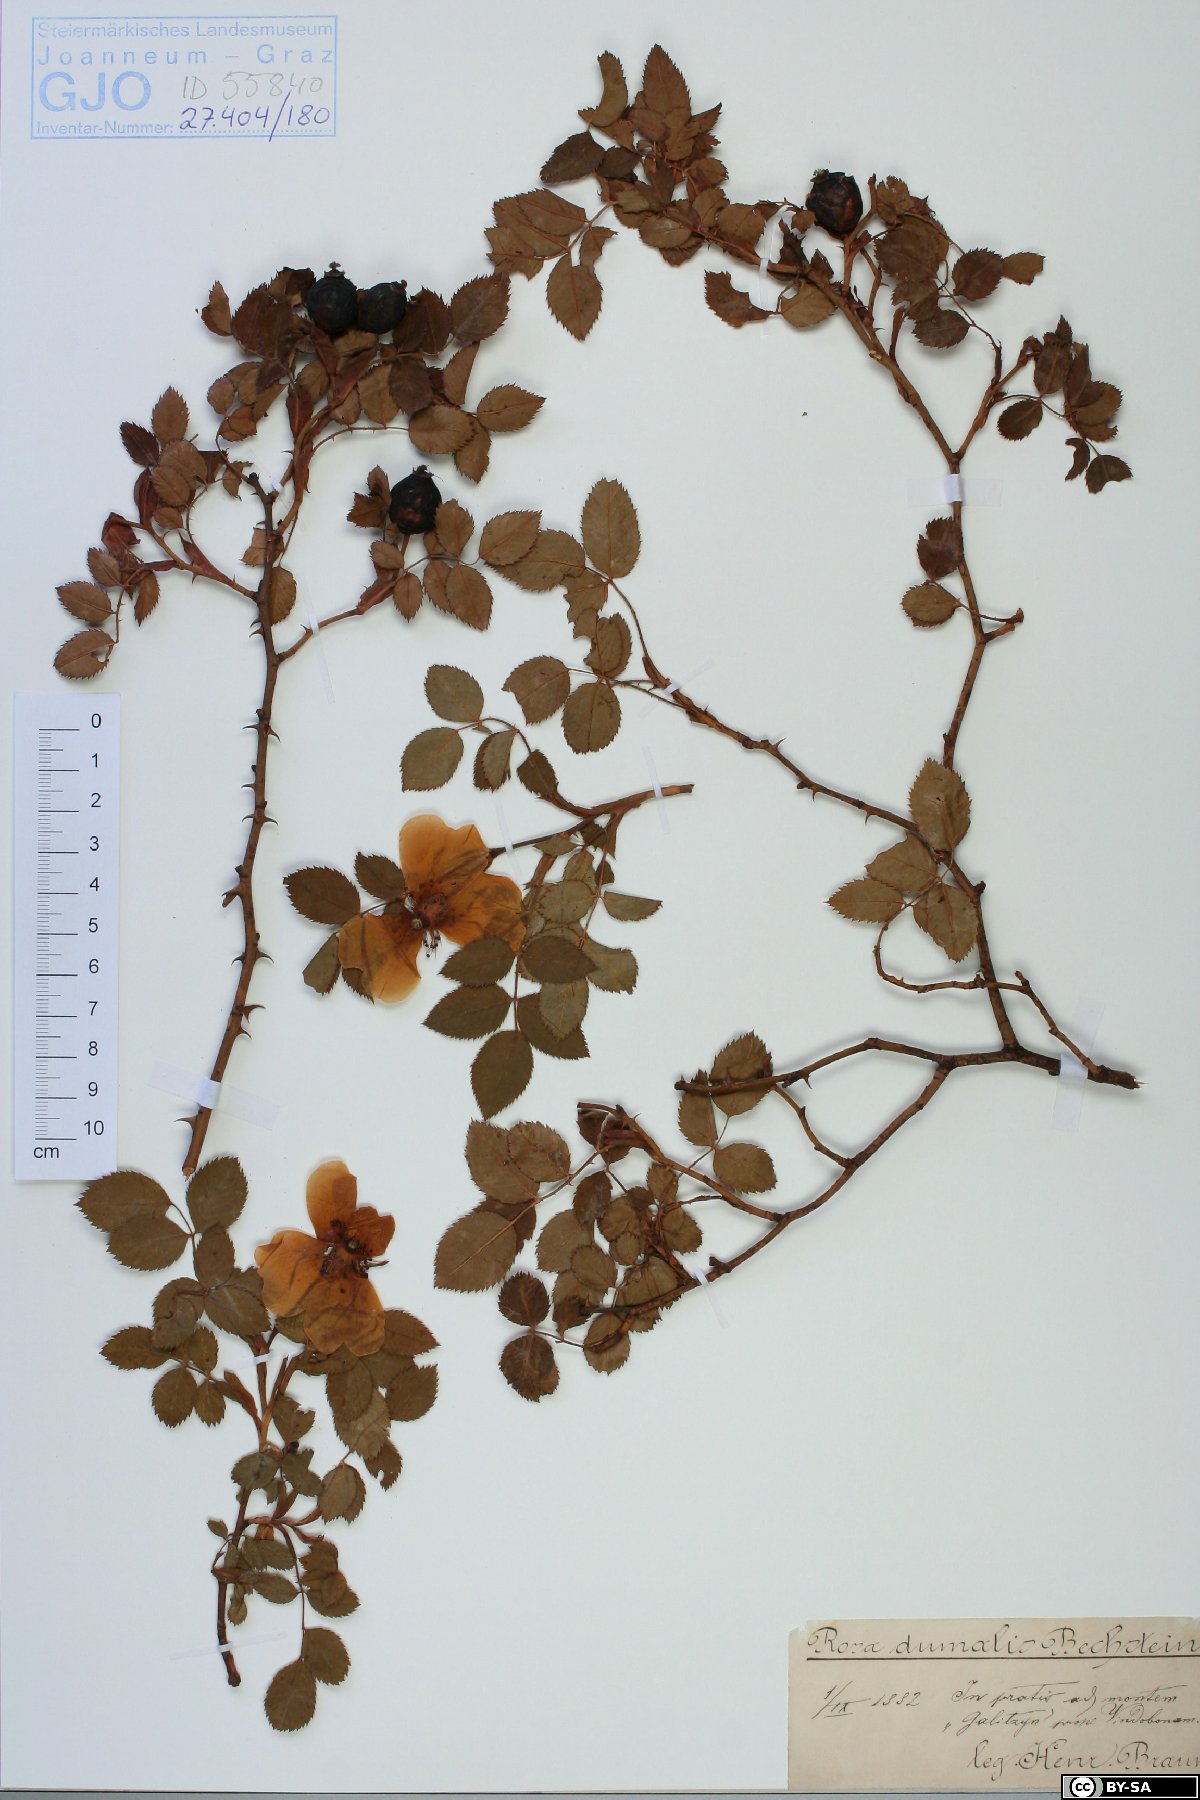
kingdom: Plantae
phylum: Tracheophyta
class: Magnoliopsida
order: Rosales
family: Rosaceae
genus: Rosa
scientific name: Rosa dumalis
